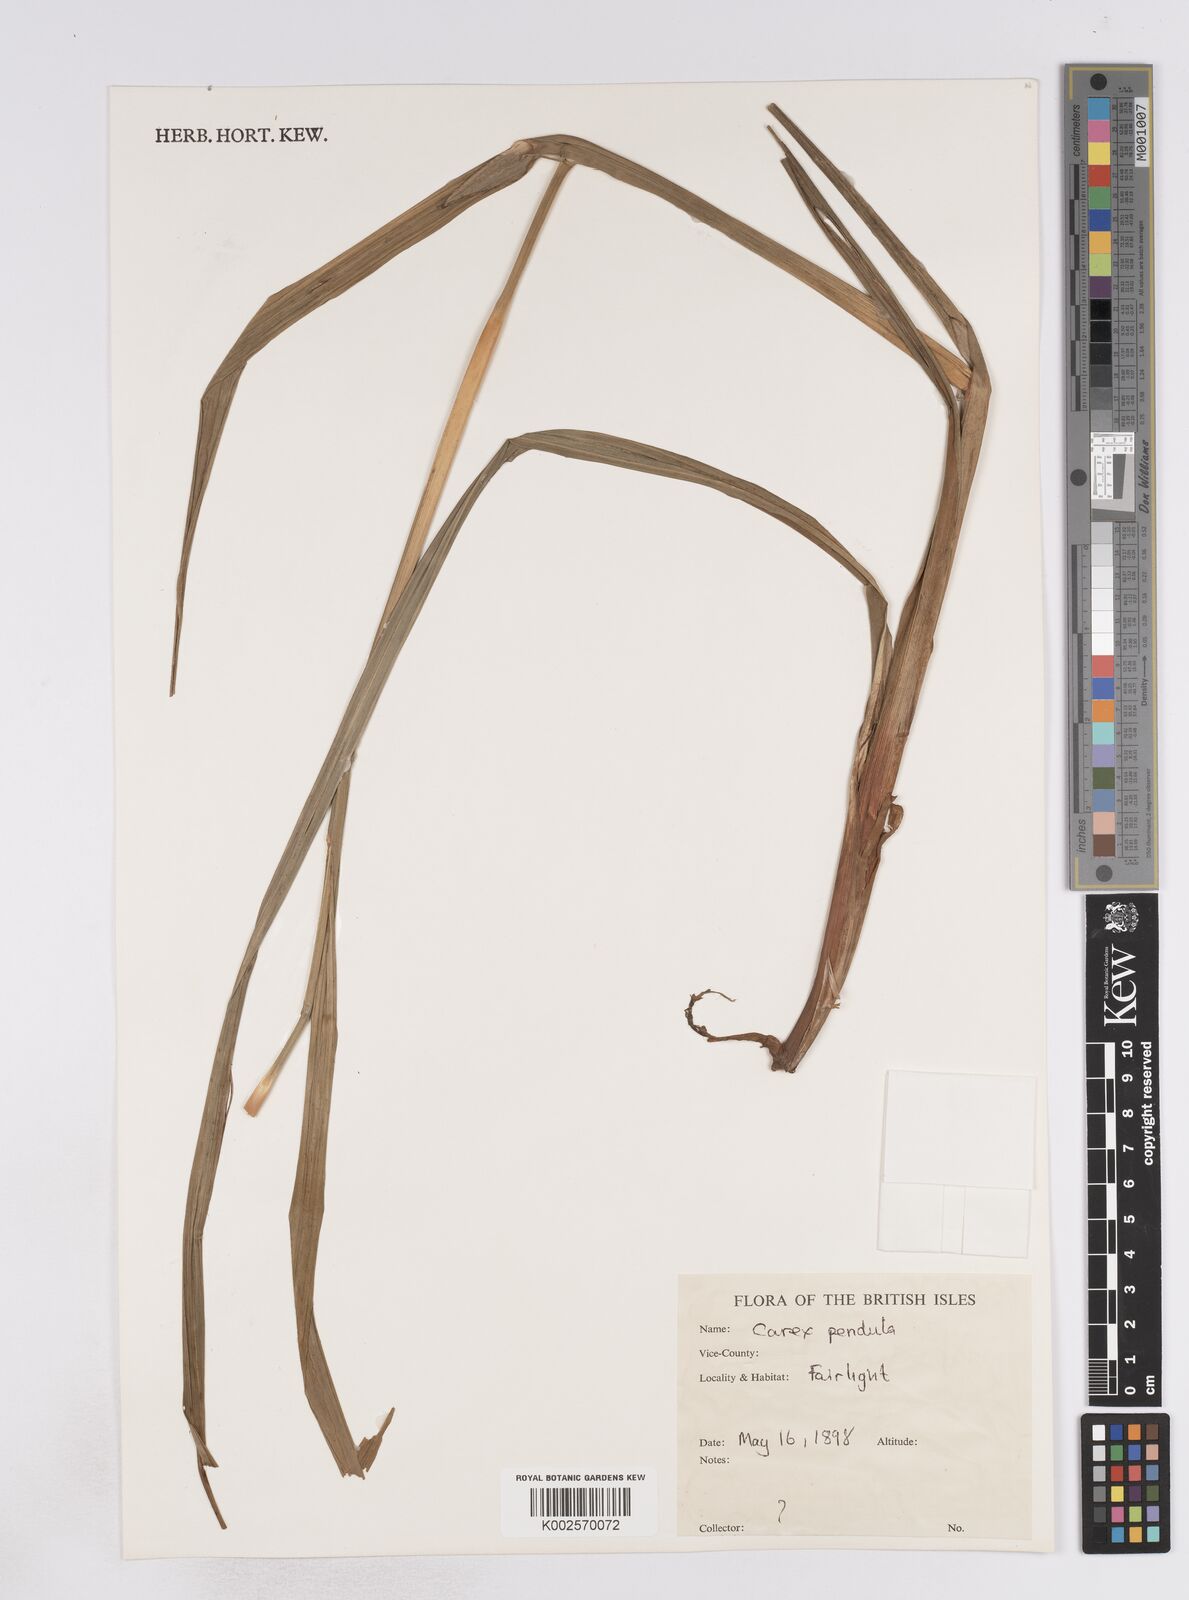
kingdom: Plantae
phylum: Tracheophyta
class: Liliopsida
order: Poales
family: Cyperaceae
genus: Carex
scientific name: Carex pendula
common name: Pendulous sedge
